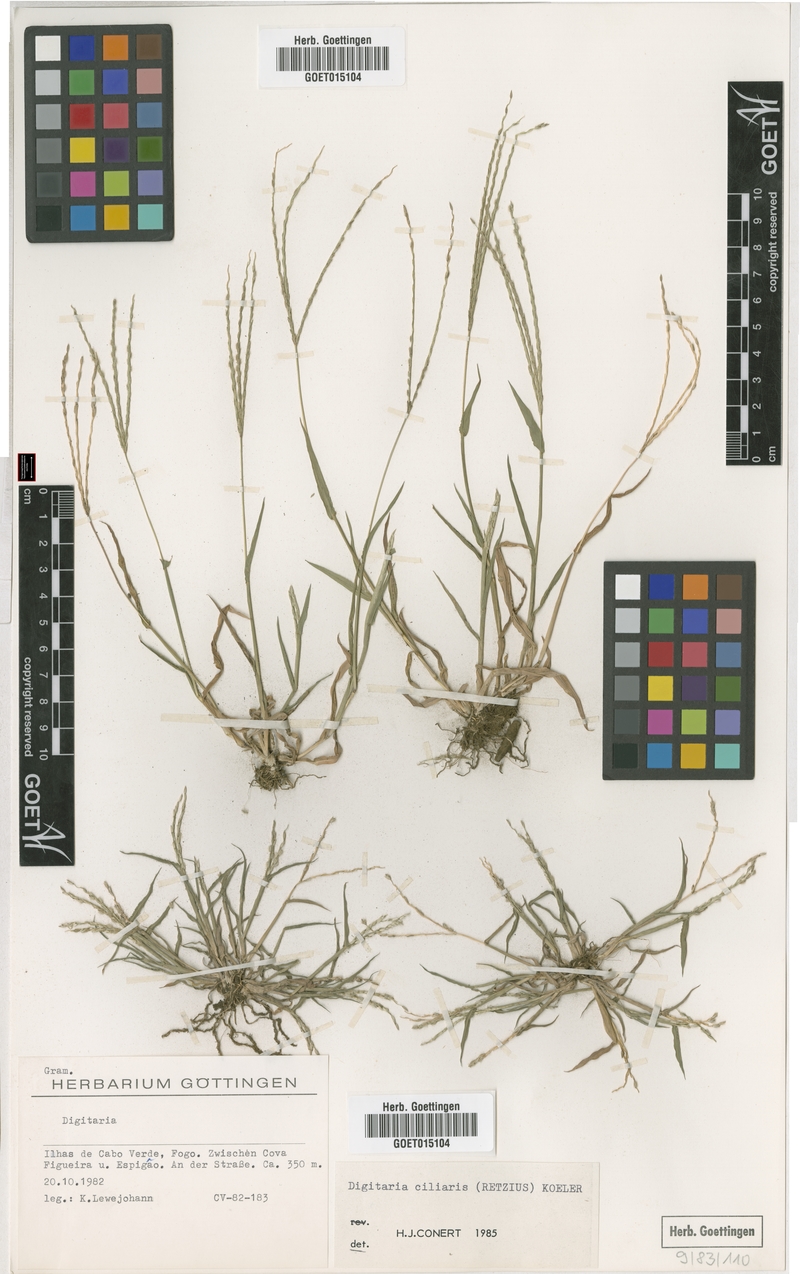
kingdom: Plantae
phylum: Tracheophyta
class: Liliopsida
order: Poales
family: Poaceae
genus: Digitaria
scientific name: Digitaria ciliaris
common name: Tropical finger-grass
